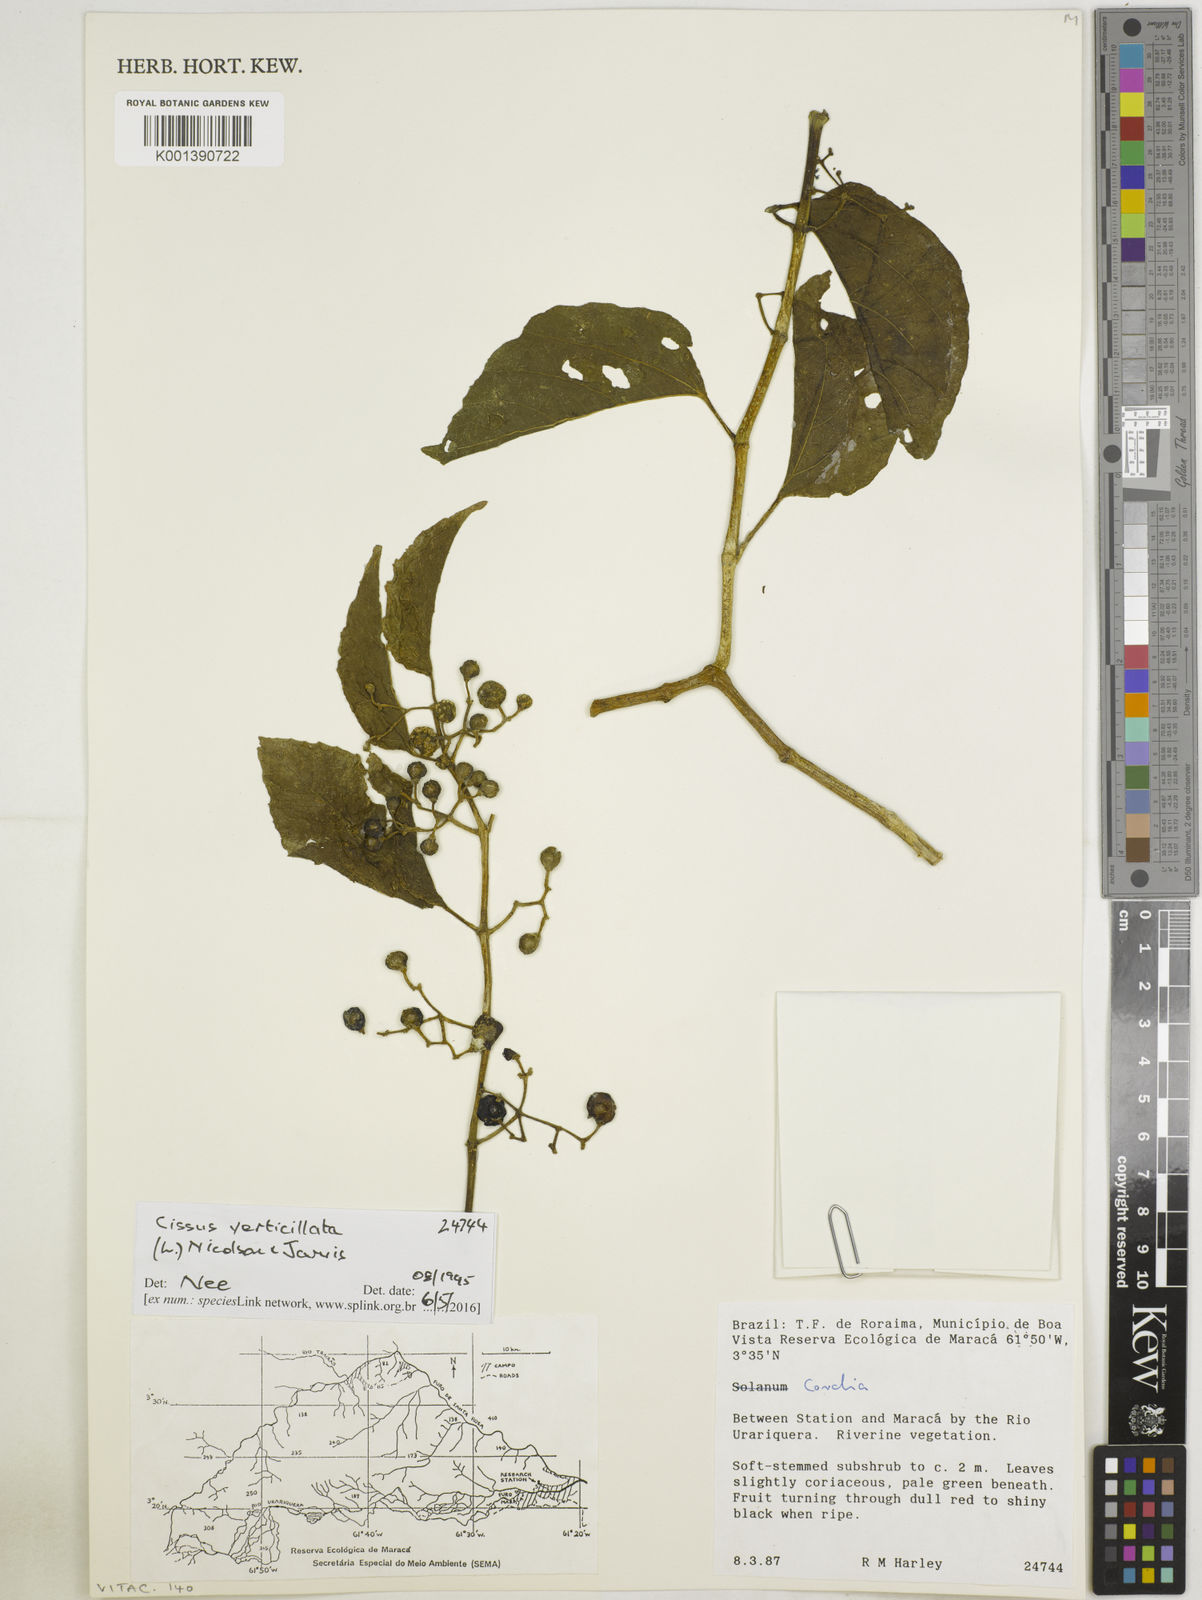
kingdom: Plantae
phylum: Tracheophyta
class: Magnoliopsida
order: Vitales
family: Vitaceae
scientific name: Vitaceae
